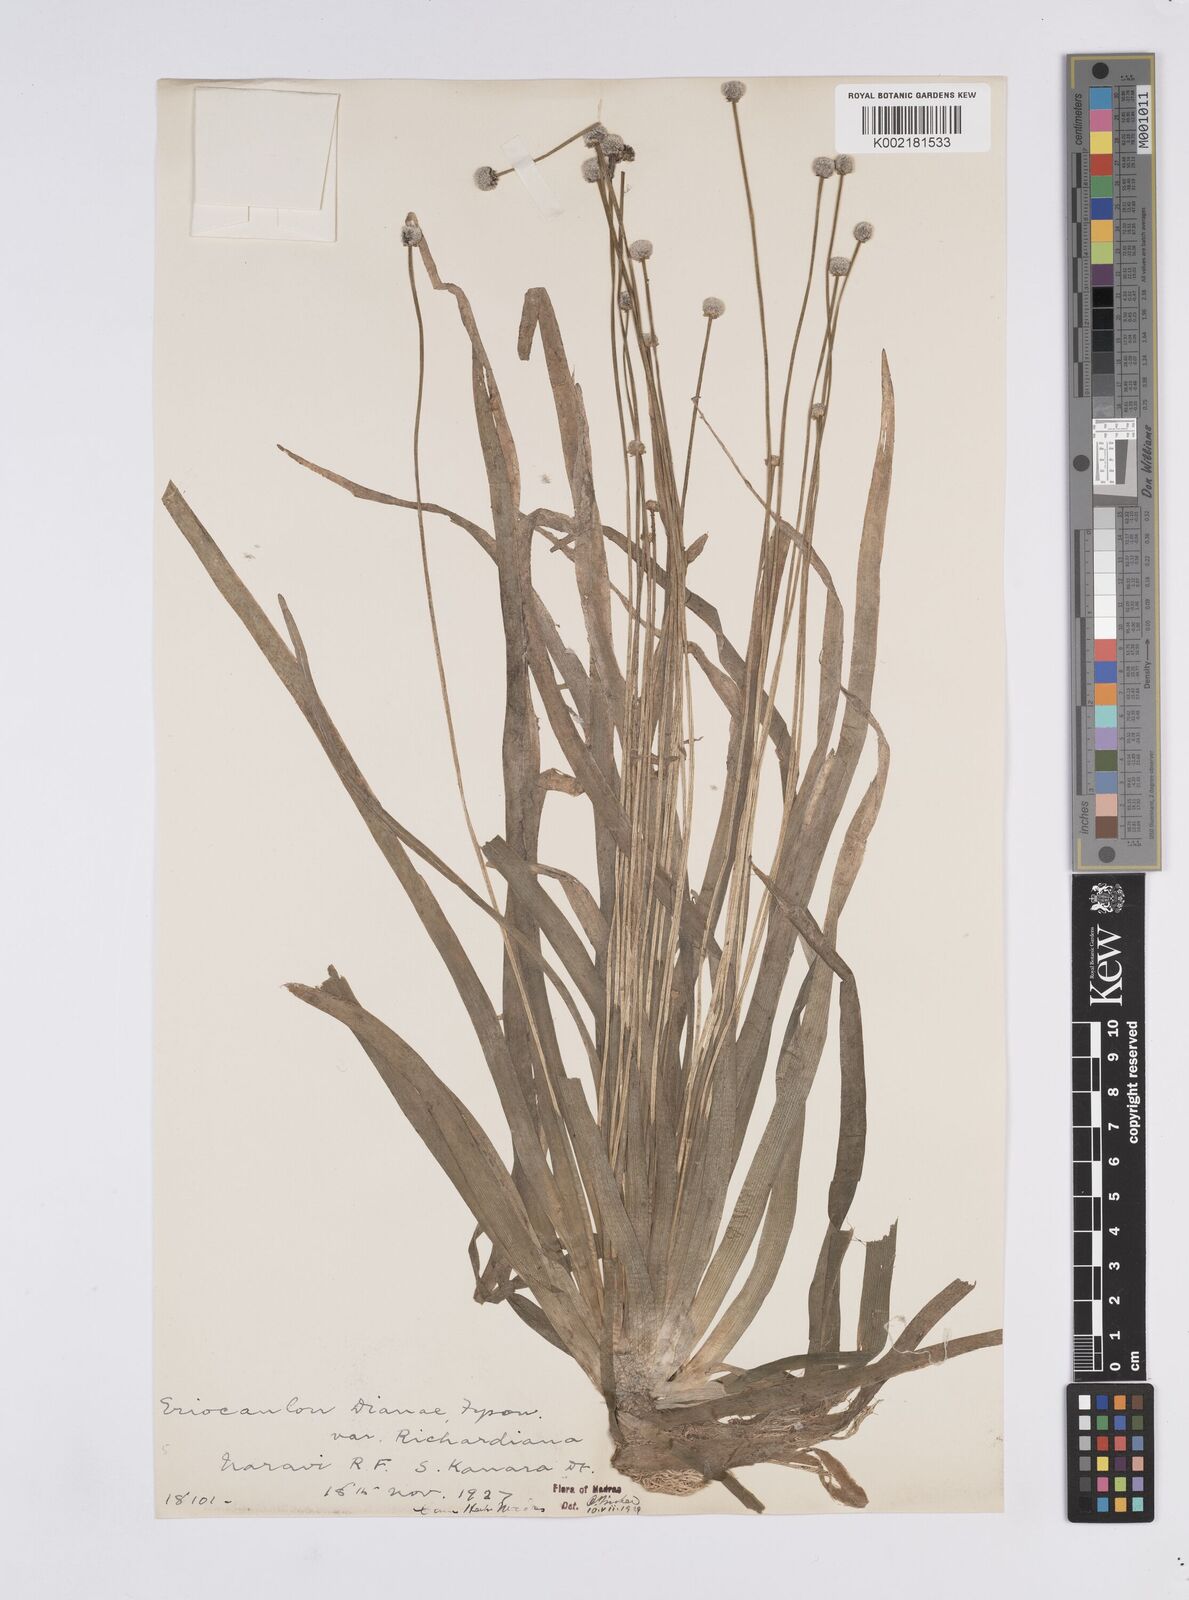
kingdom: Plantae
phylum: Tracheophyta
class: Liliopsida
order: Poales
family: Eriocaulaceae
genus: Eriocaulon
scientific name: Eriocaulon heterolepis
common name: Buttonhead pipewort
